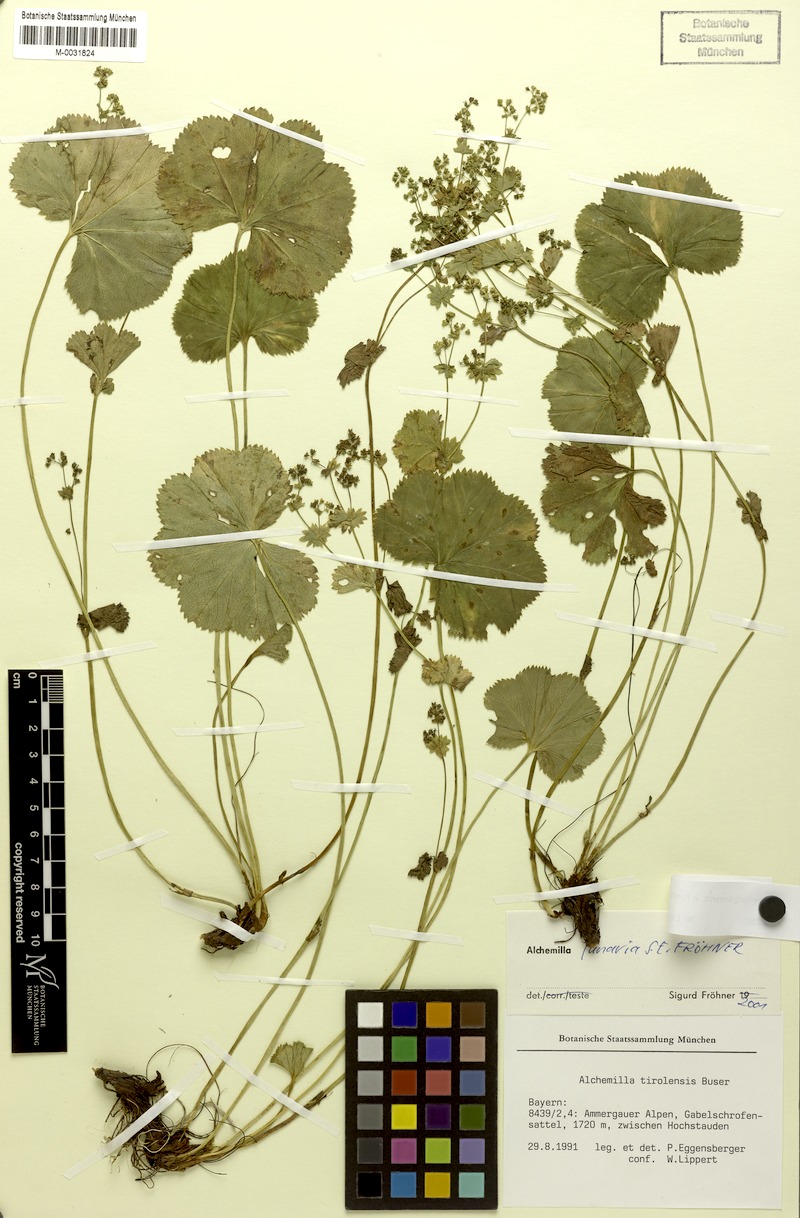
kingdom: Plantae
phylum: Tracheophyta
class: Magnoliopsida
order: Rosales
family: Rosaceae
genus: Alchemilla
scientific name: Alchemilla lunaria
